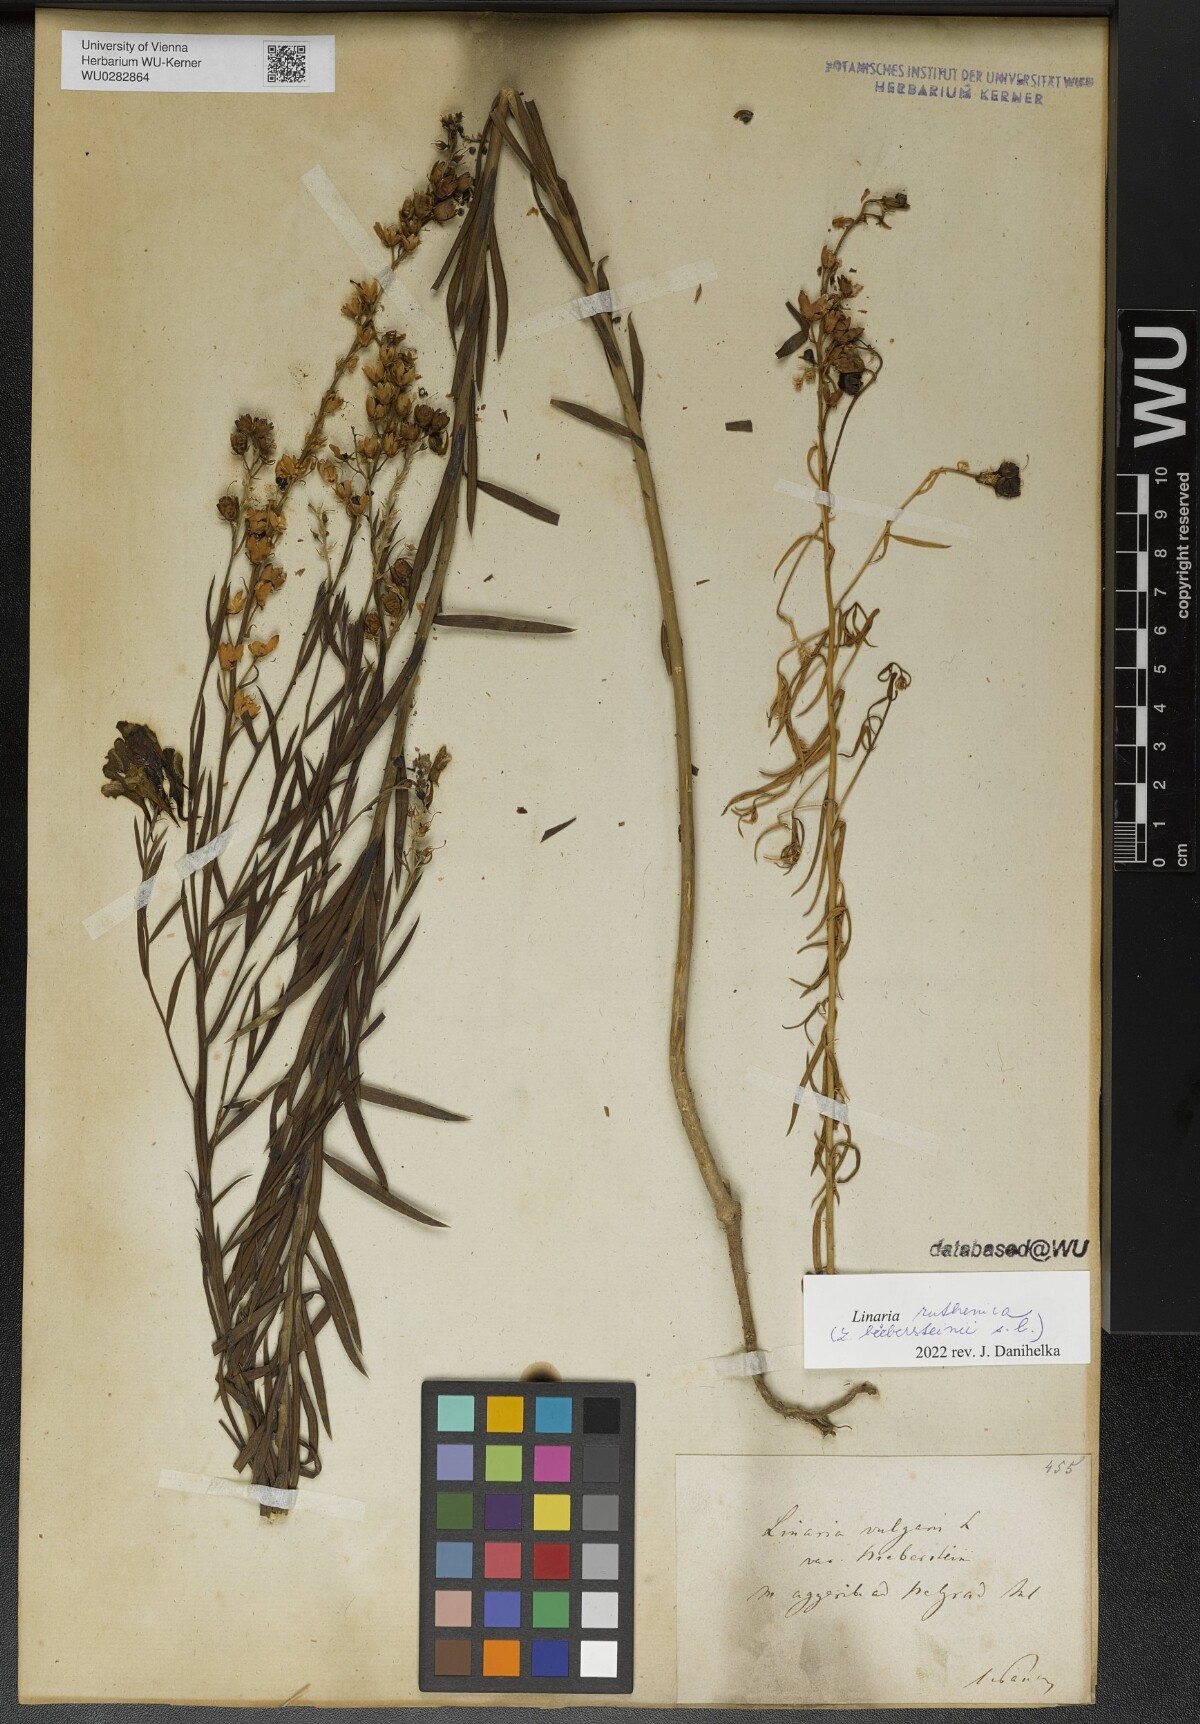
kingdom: Plantae
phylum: Tracheophyta
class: Magnoliopsida
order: Lamiales
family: Plantaginaceae
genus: Linaria
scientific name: Linaria biebersteinii
